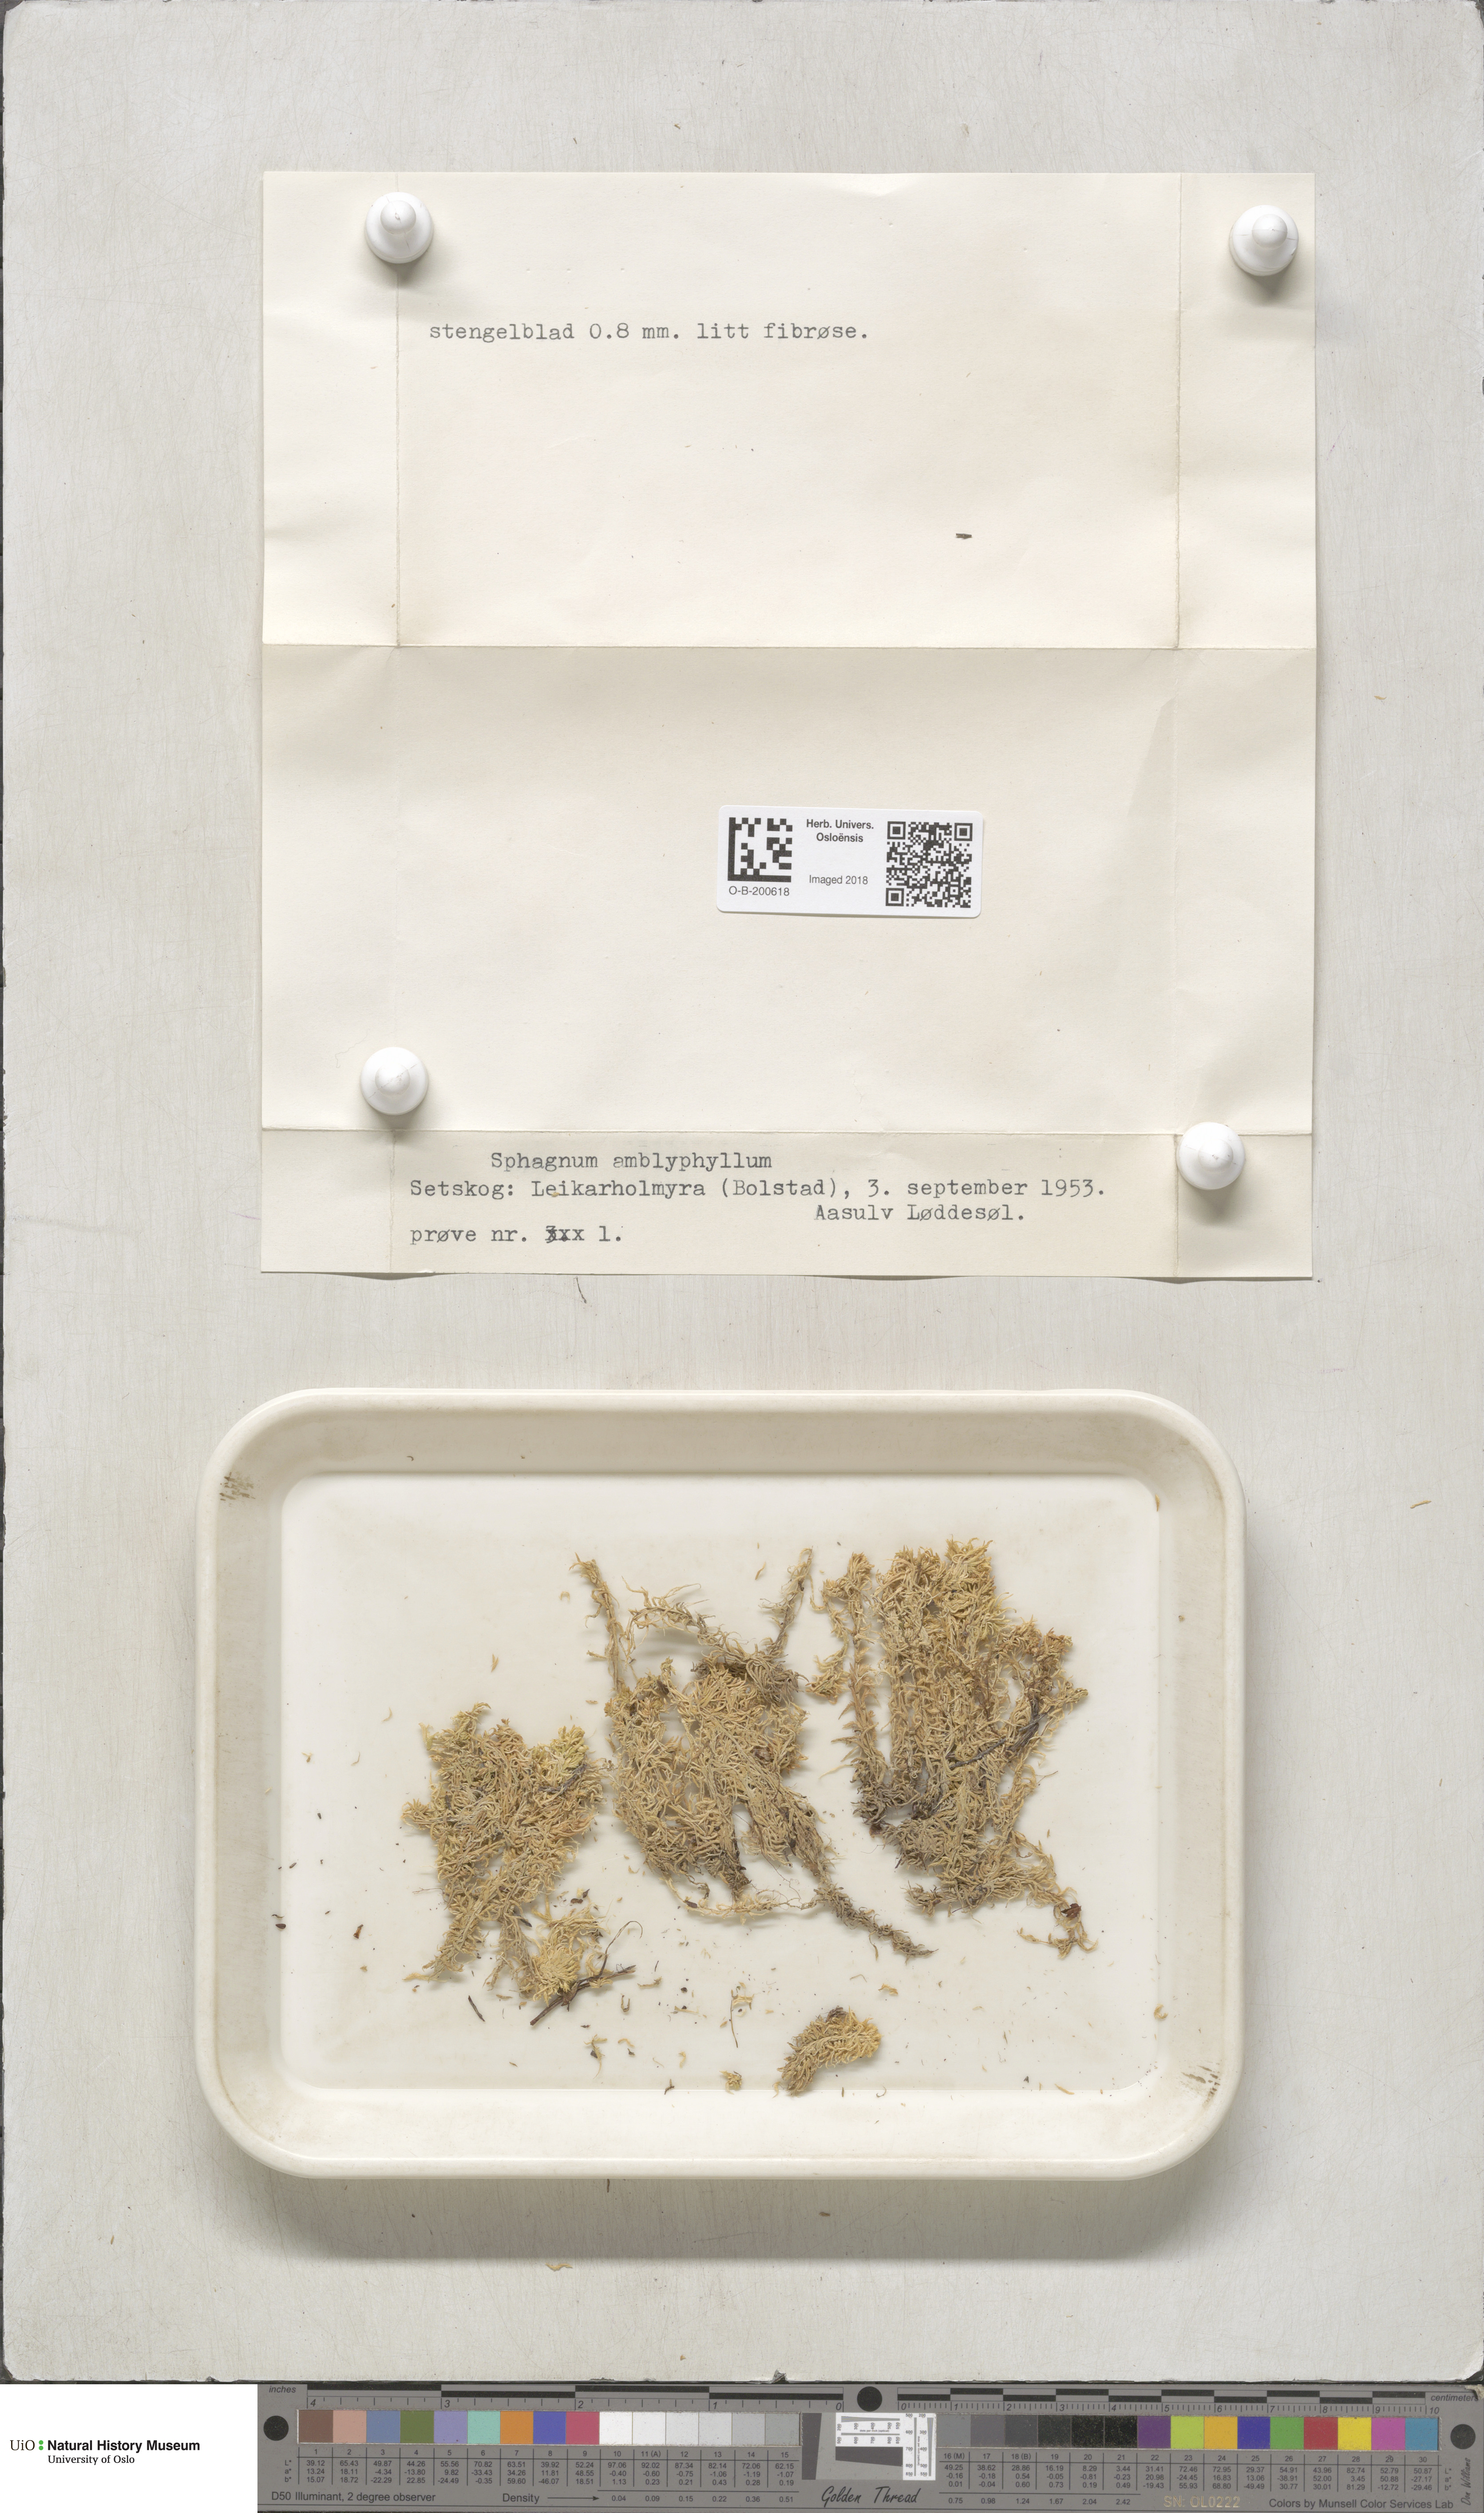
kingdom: Plantae
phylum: Bryophyta
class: Sphagnopsida
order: Sphagnales
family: Sphagnaceae
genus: Sphagnum
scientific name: Sphagnum flexuosum
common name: Flexible peat moss
